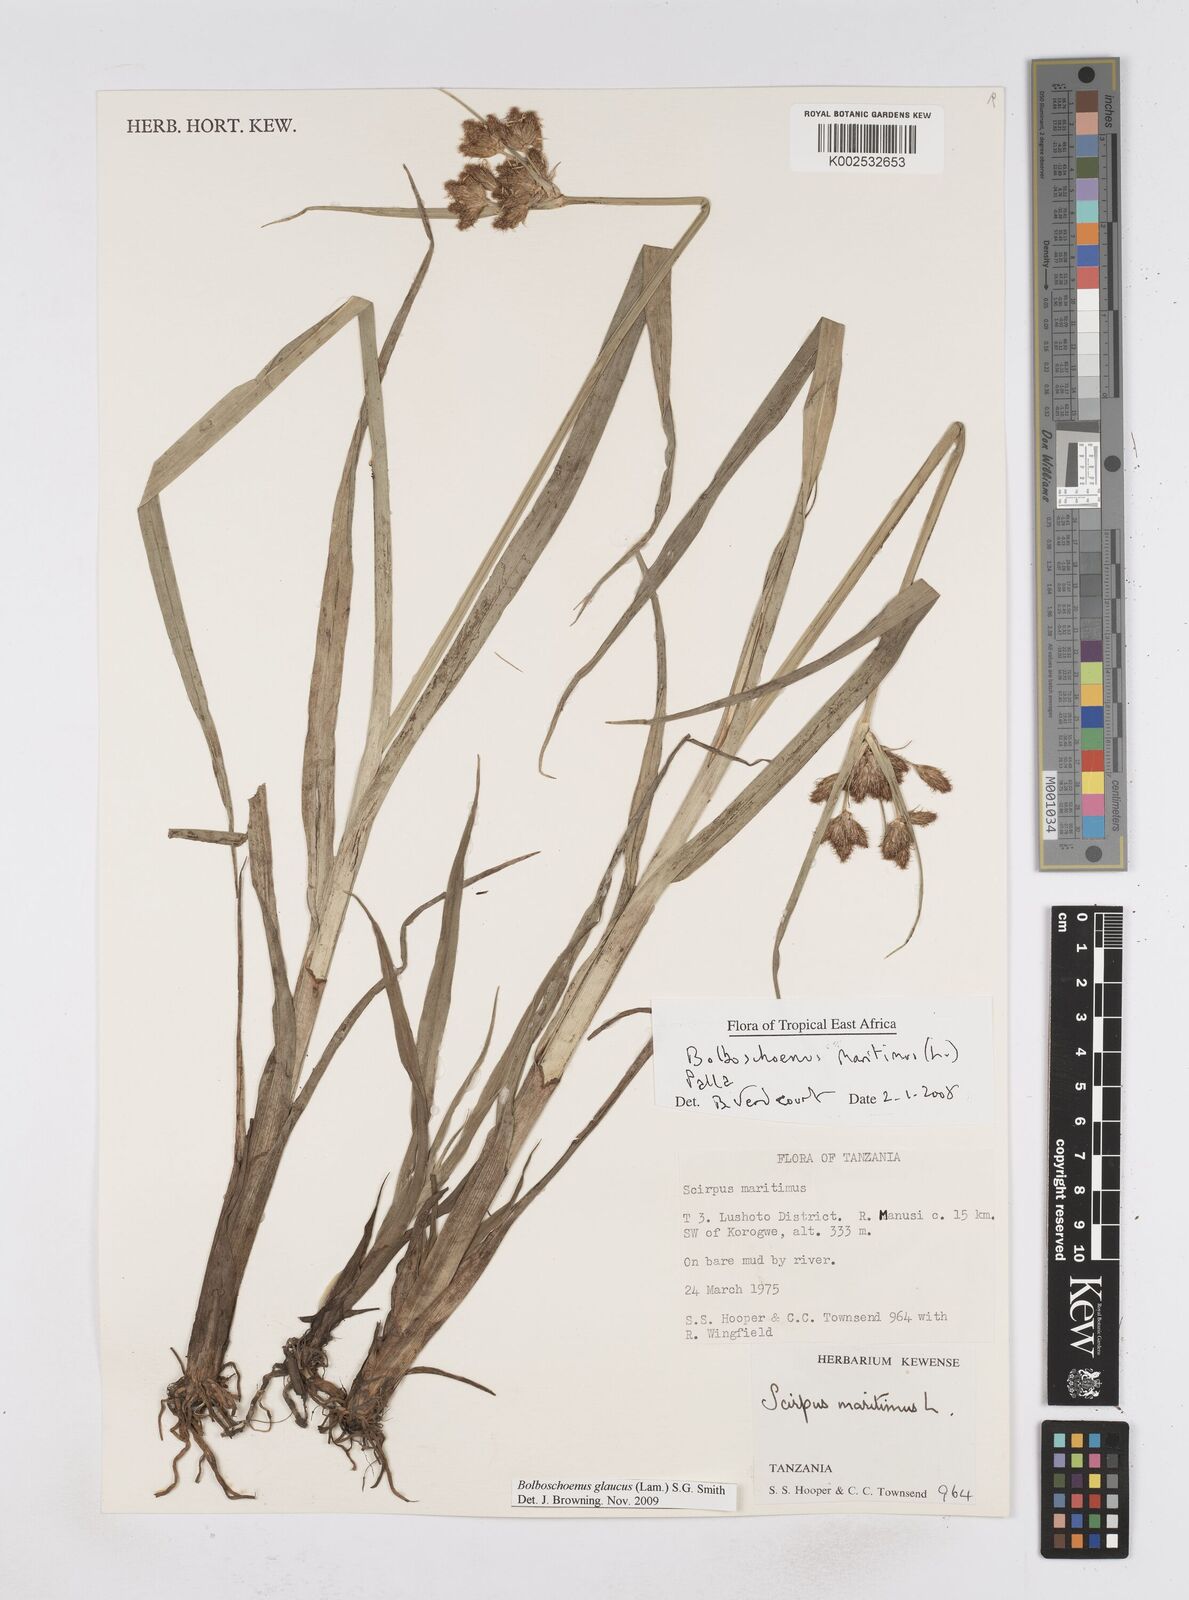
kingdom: Plantae
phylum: Tracheophyta
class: Liliopsida
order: Poales
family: Cyperaceae
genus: Bolboschoenus
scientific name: Bolboschoenus glaucus
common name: Tuberous bulrush
